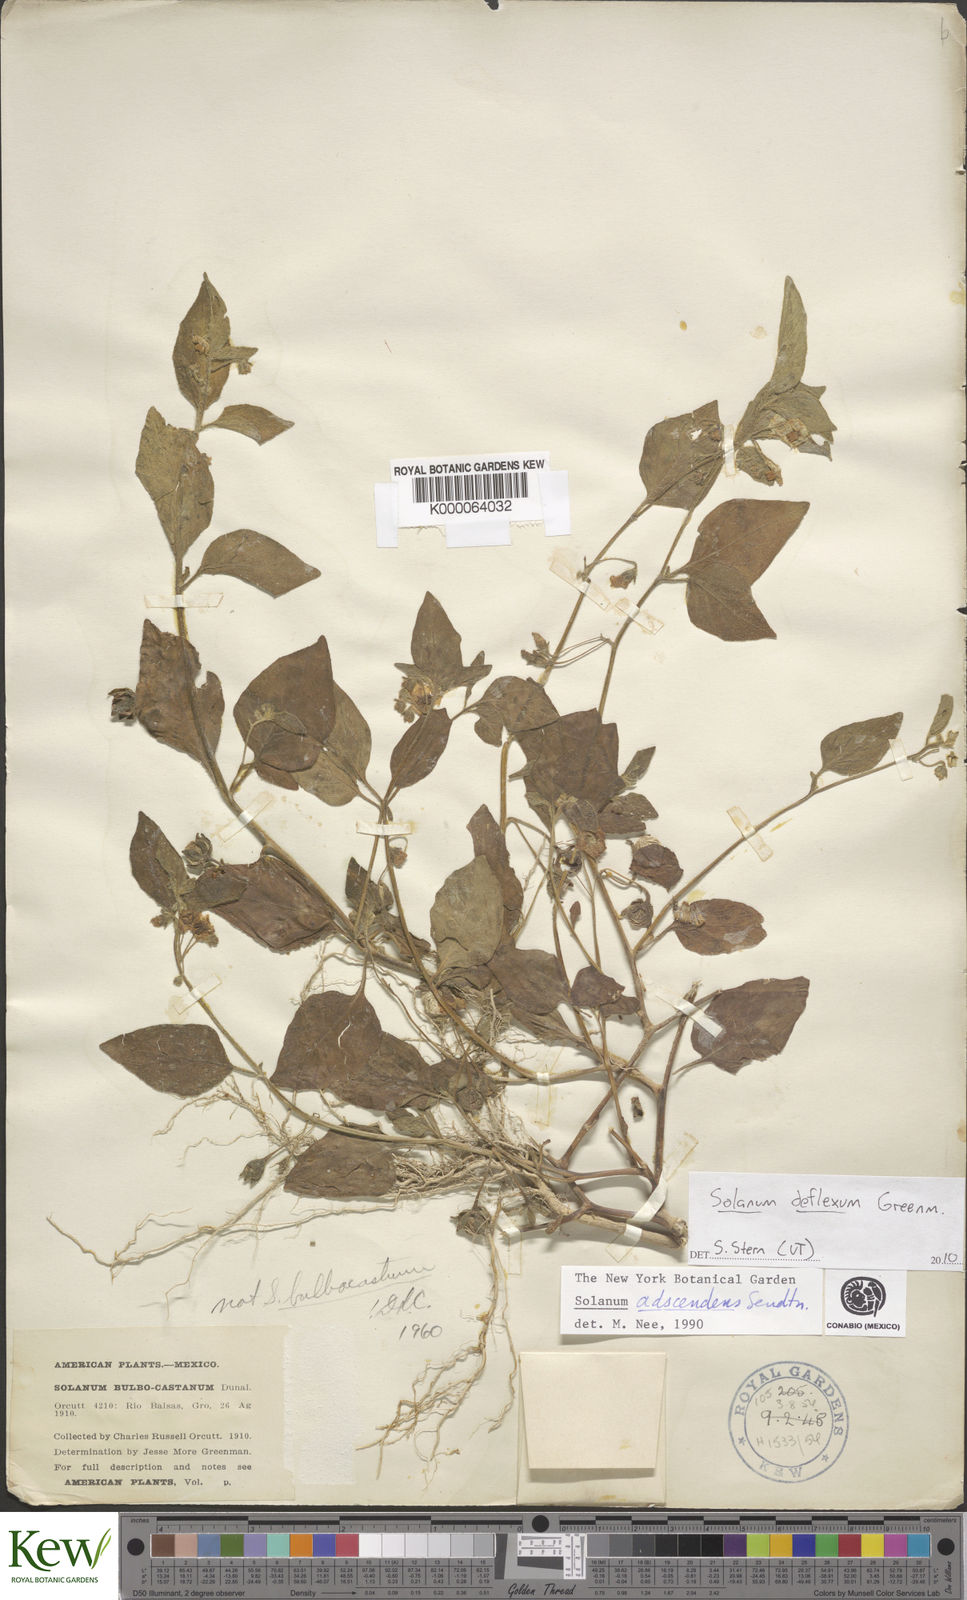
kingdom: Plantae
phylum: Tracheophyta
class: Magnoliopsida
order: Solanales
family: Solanaceae
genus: Solanum
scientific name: Solanum
